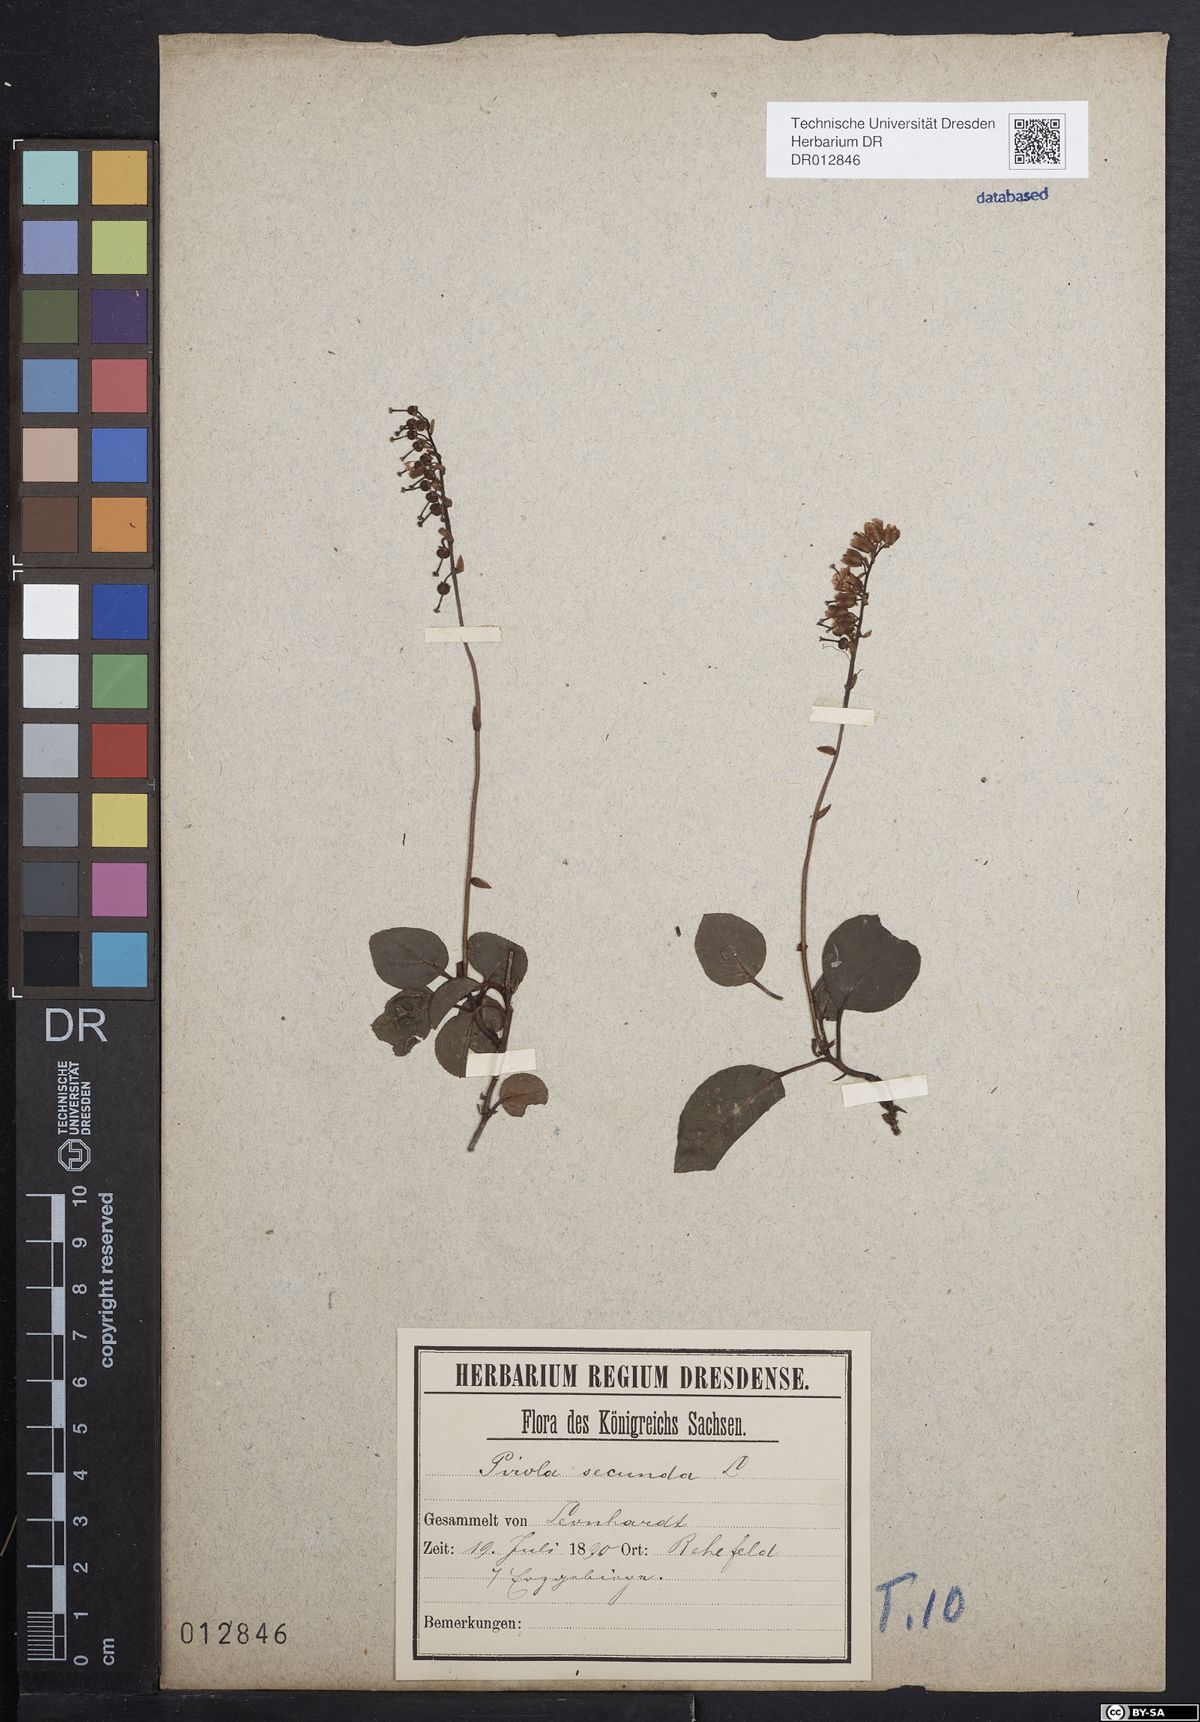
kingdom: Plantae
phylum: Tracheophyta
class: Magnoliopsida
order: Ericales
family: Ericaceae
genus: Orthilia
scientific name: Orthilia secunda
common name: One-sided orthilia
